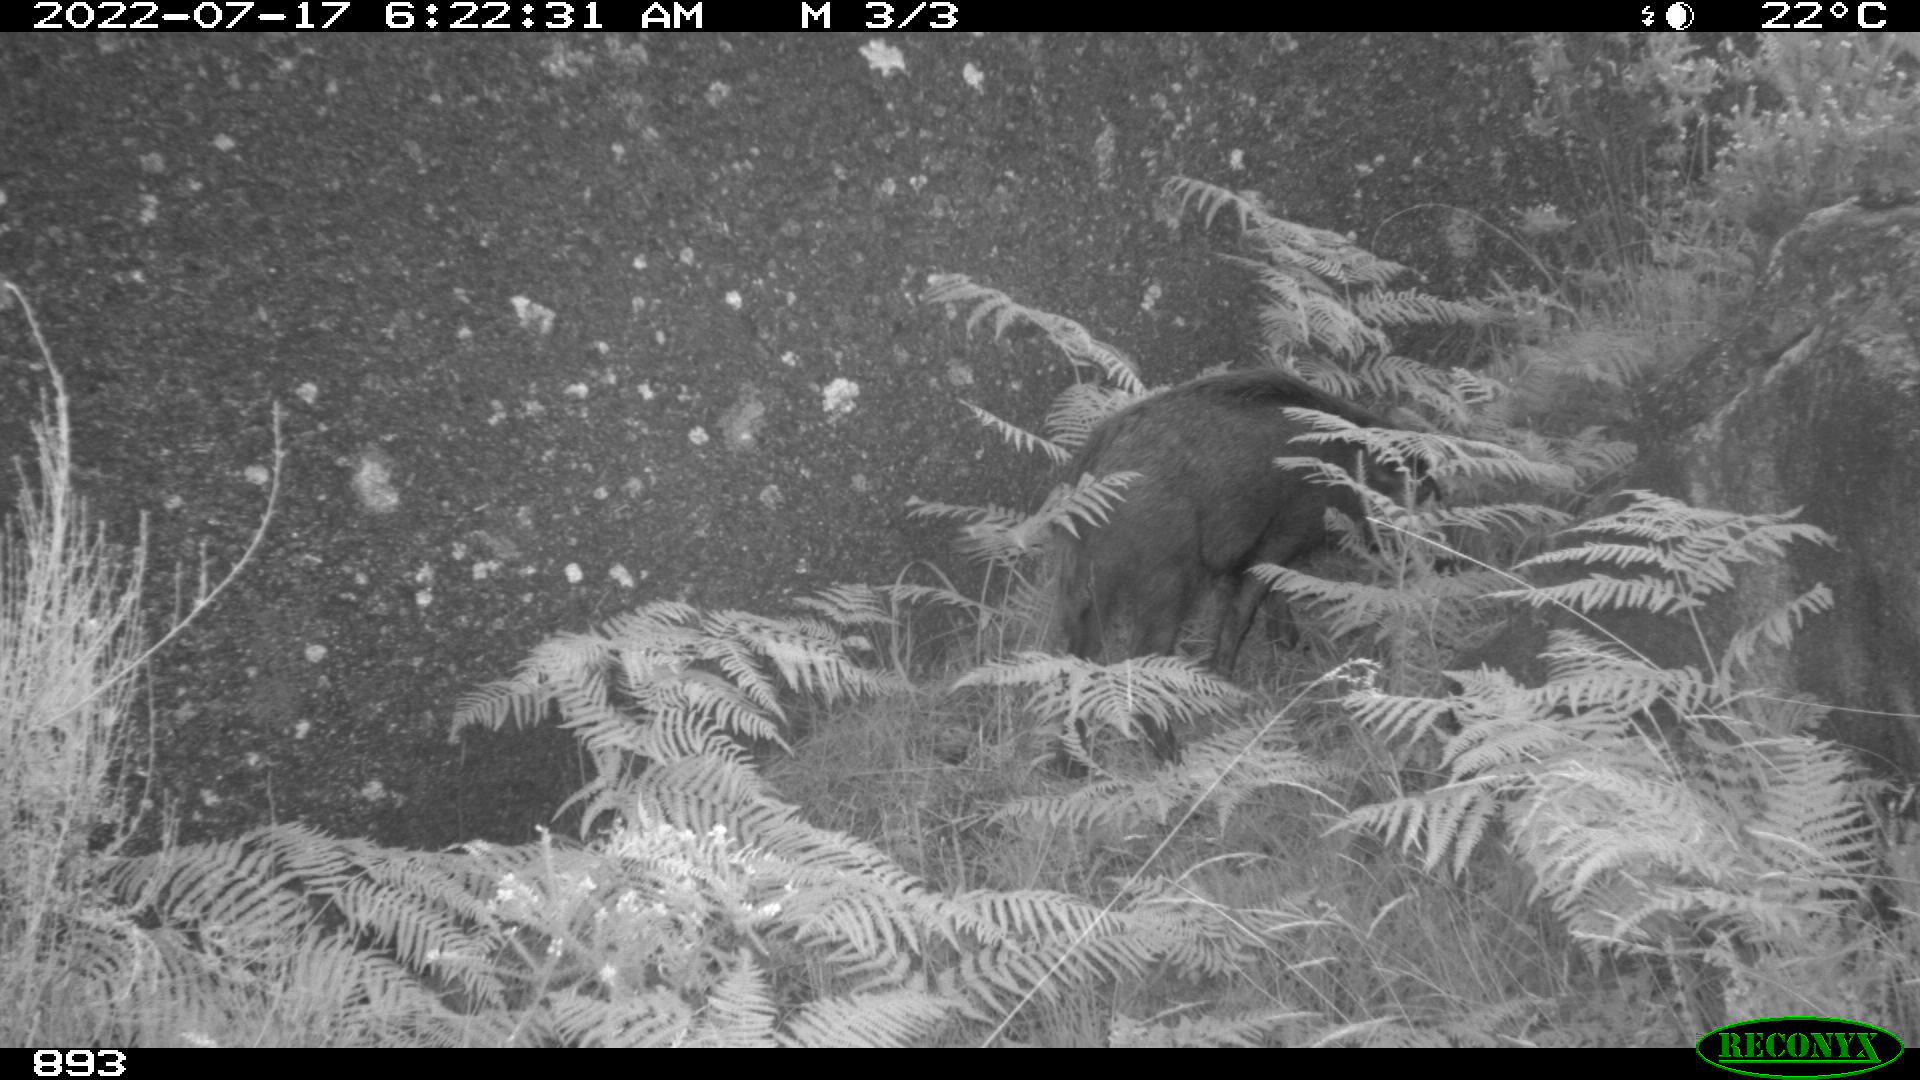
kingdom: Animalia
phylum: Chordata
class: Mammalia
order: Artiodactyla
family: Suidae
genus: Sus
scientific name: Sus scrofa
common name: Wild boar
